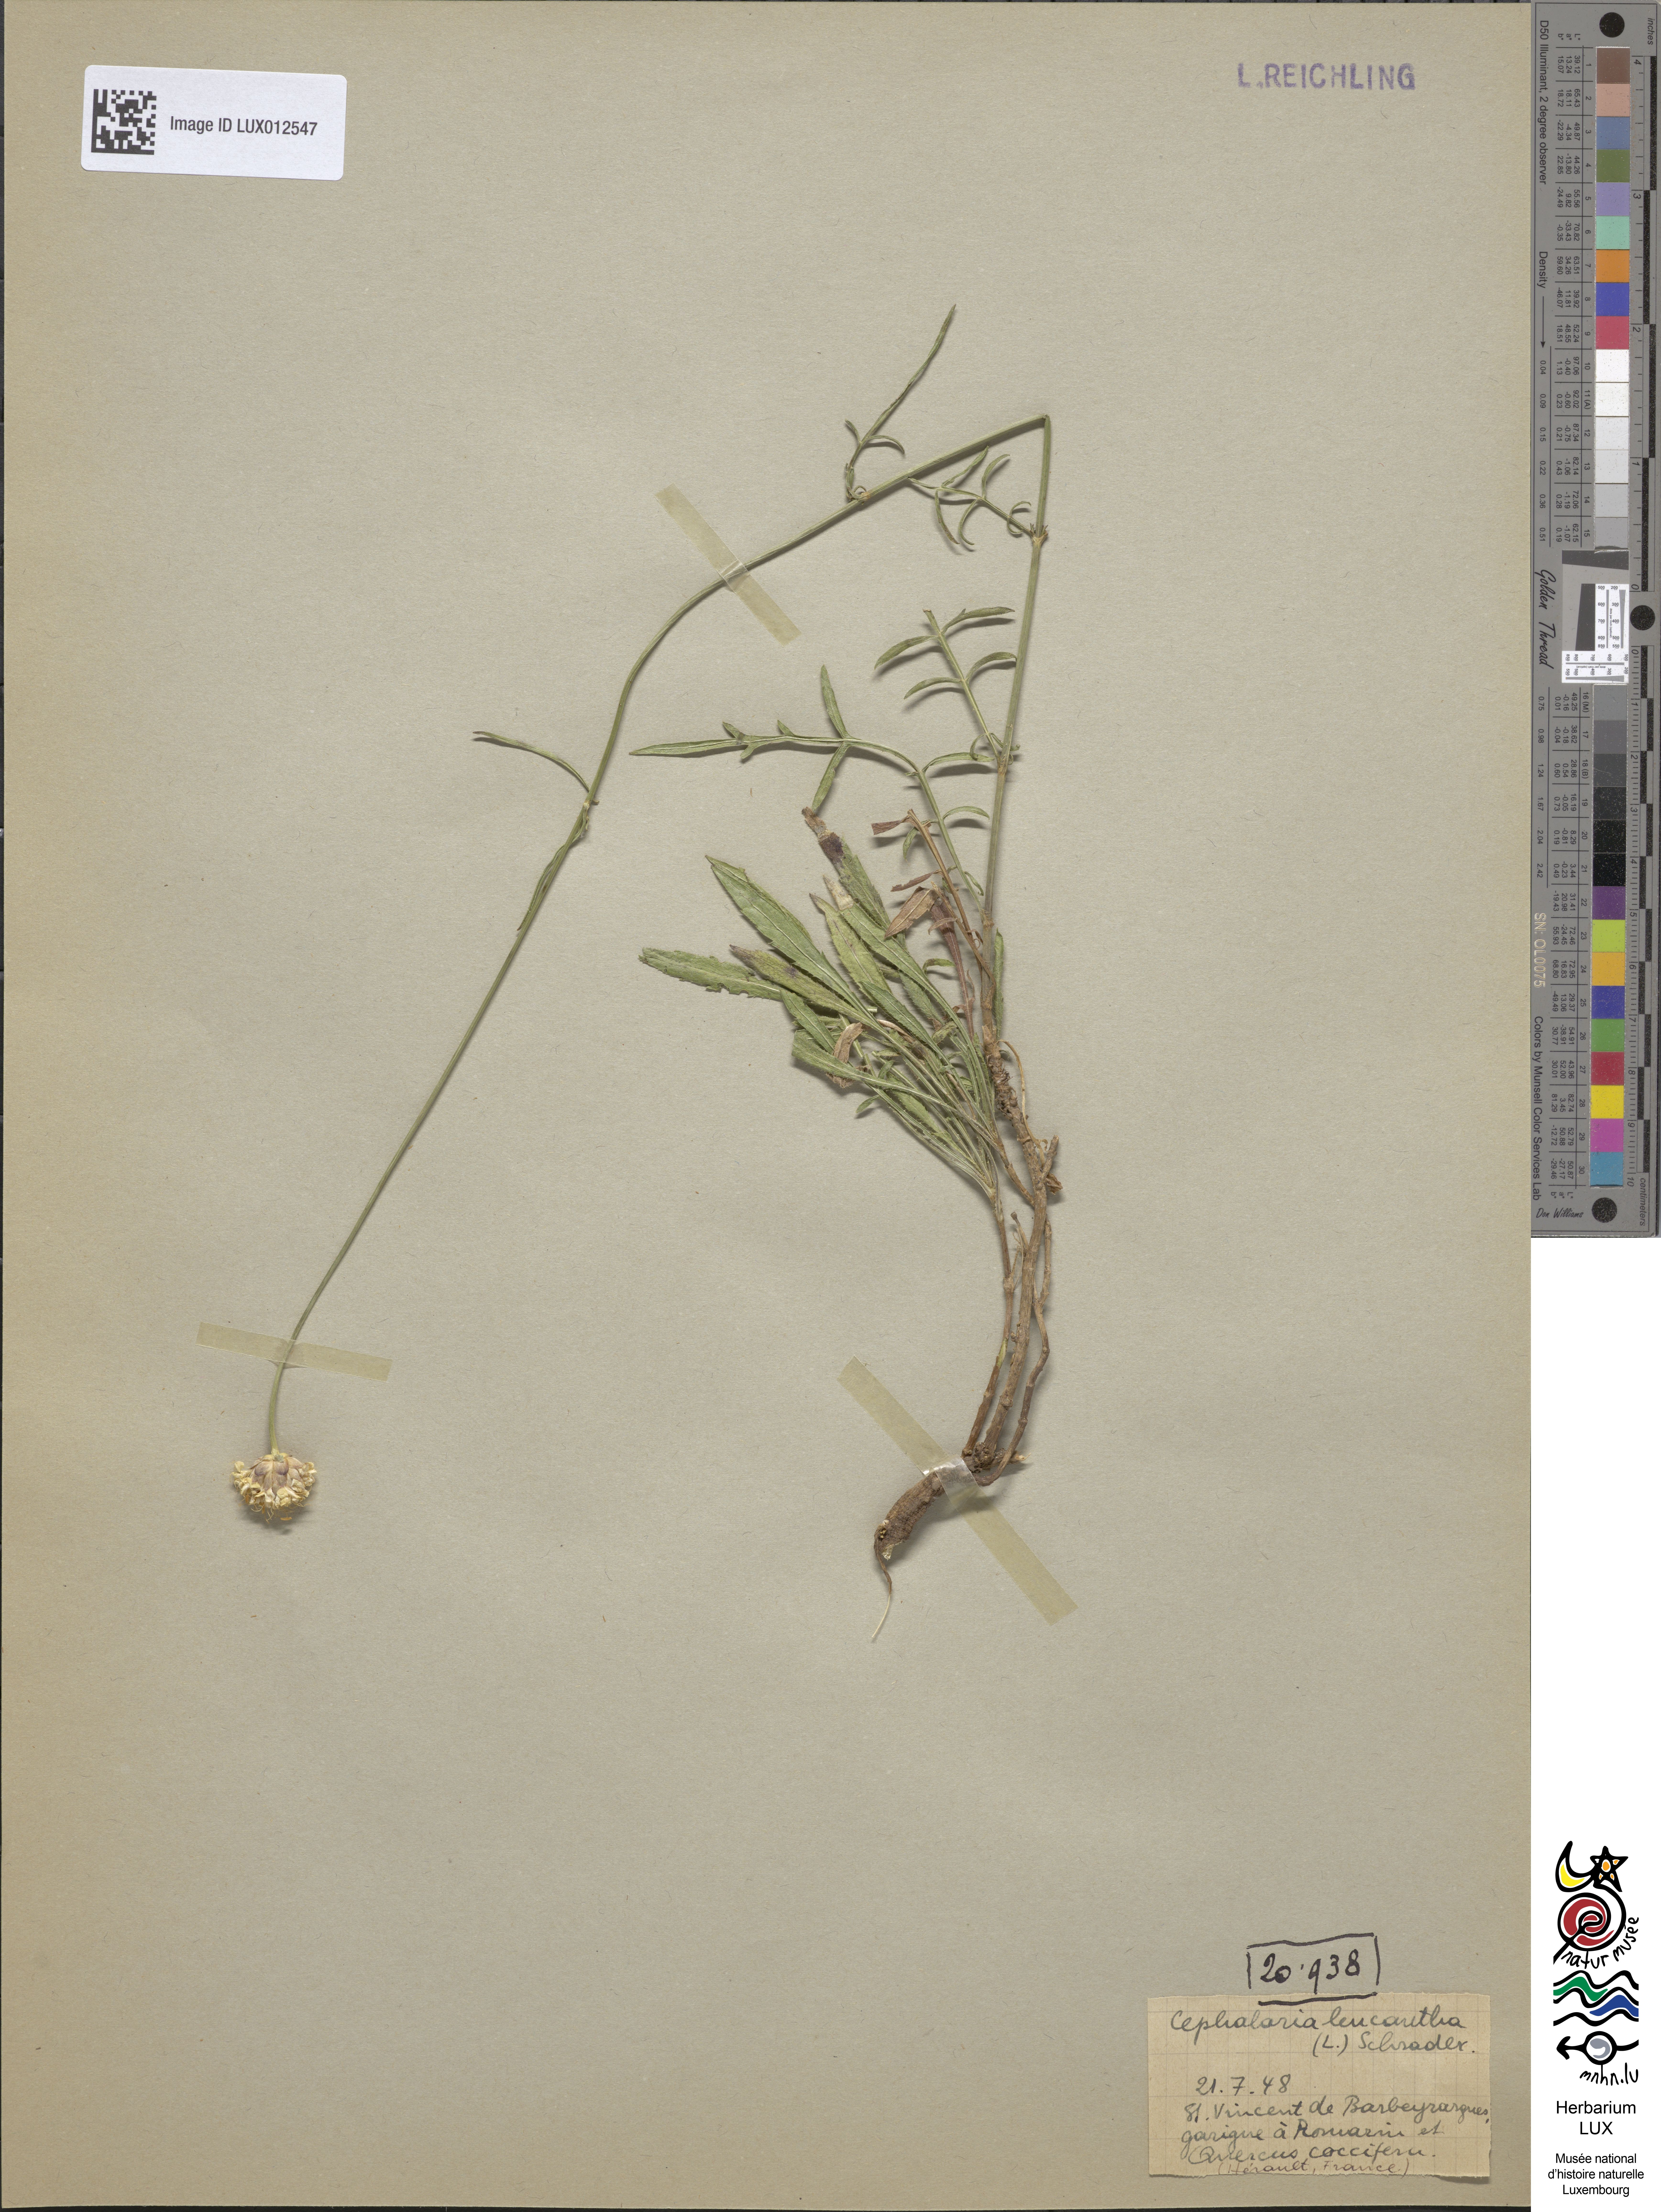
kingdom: Plantae
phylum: Tracheophyta
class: Magnoliopsida
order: Dipsacales
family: Dipsacaceae
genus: Cephalaria
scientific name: Cephalaria leucantha
